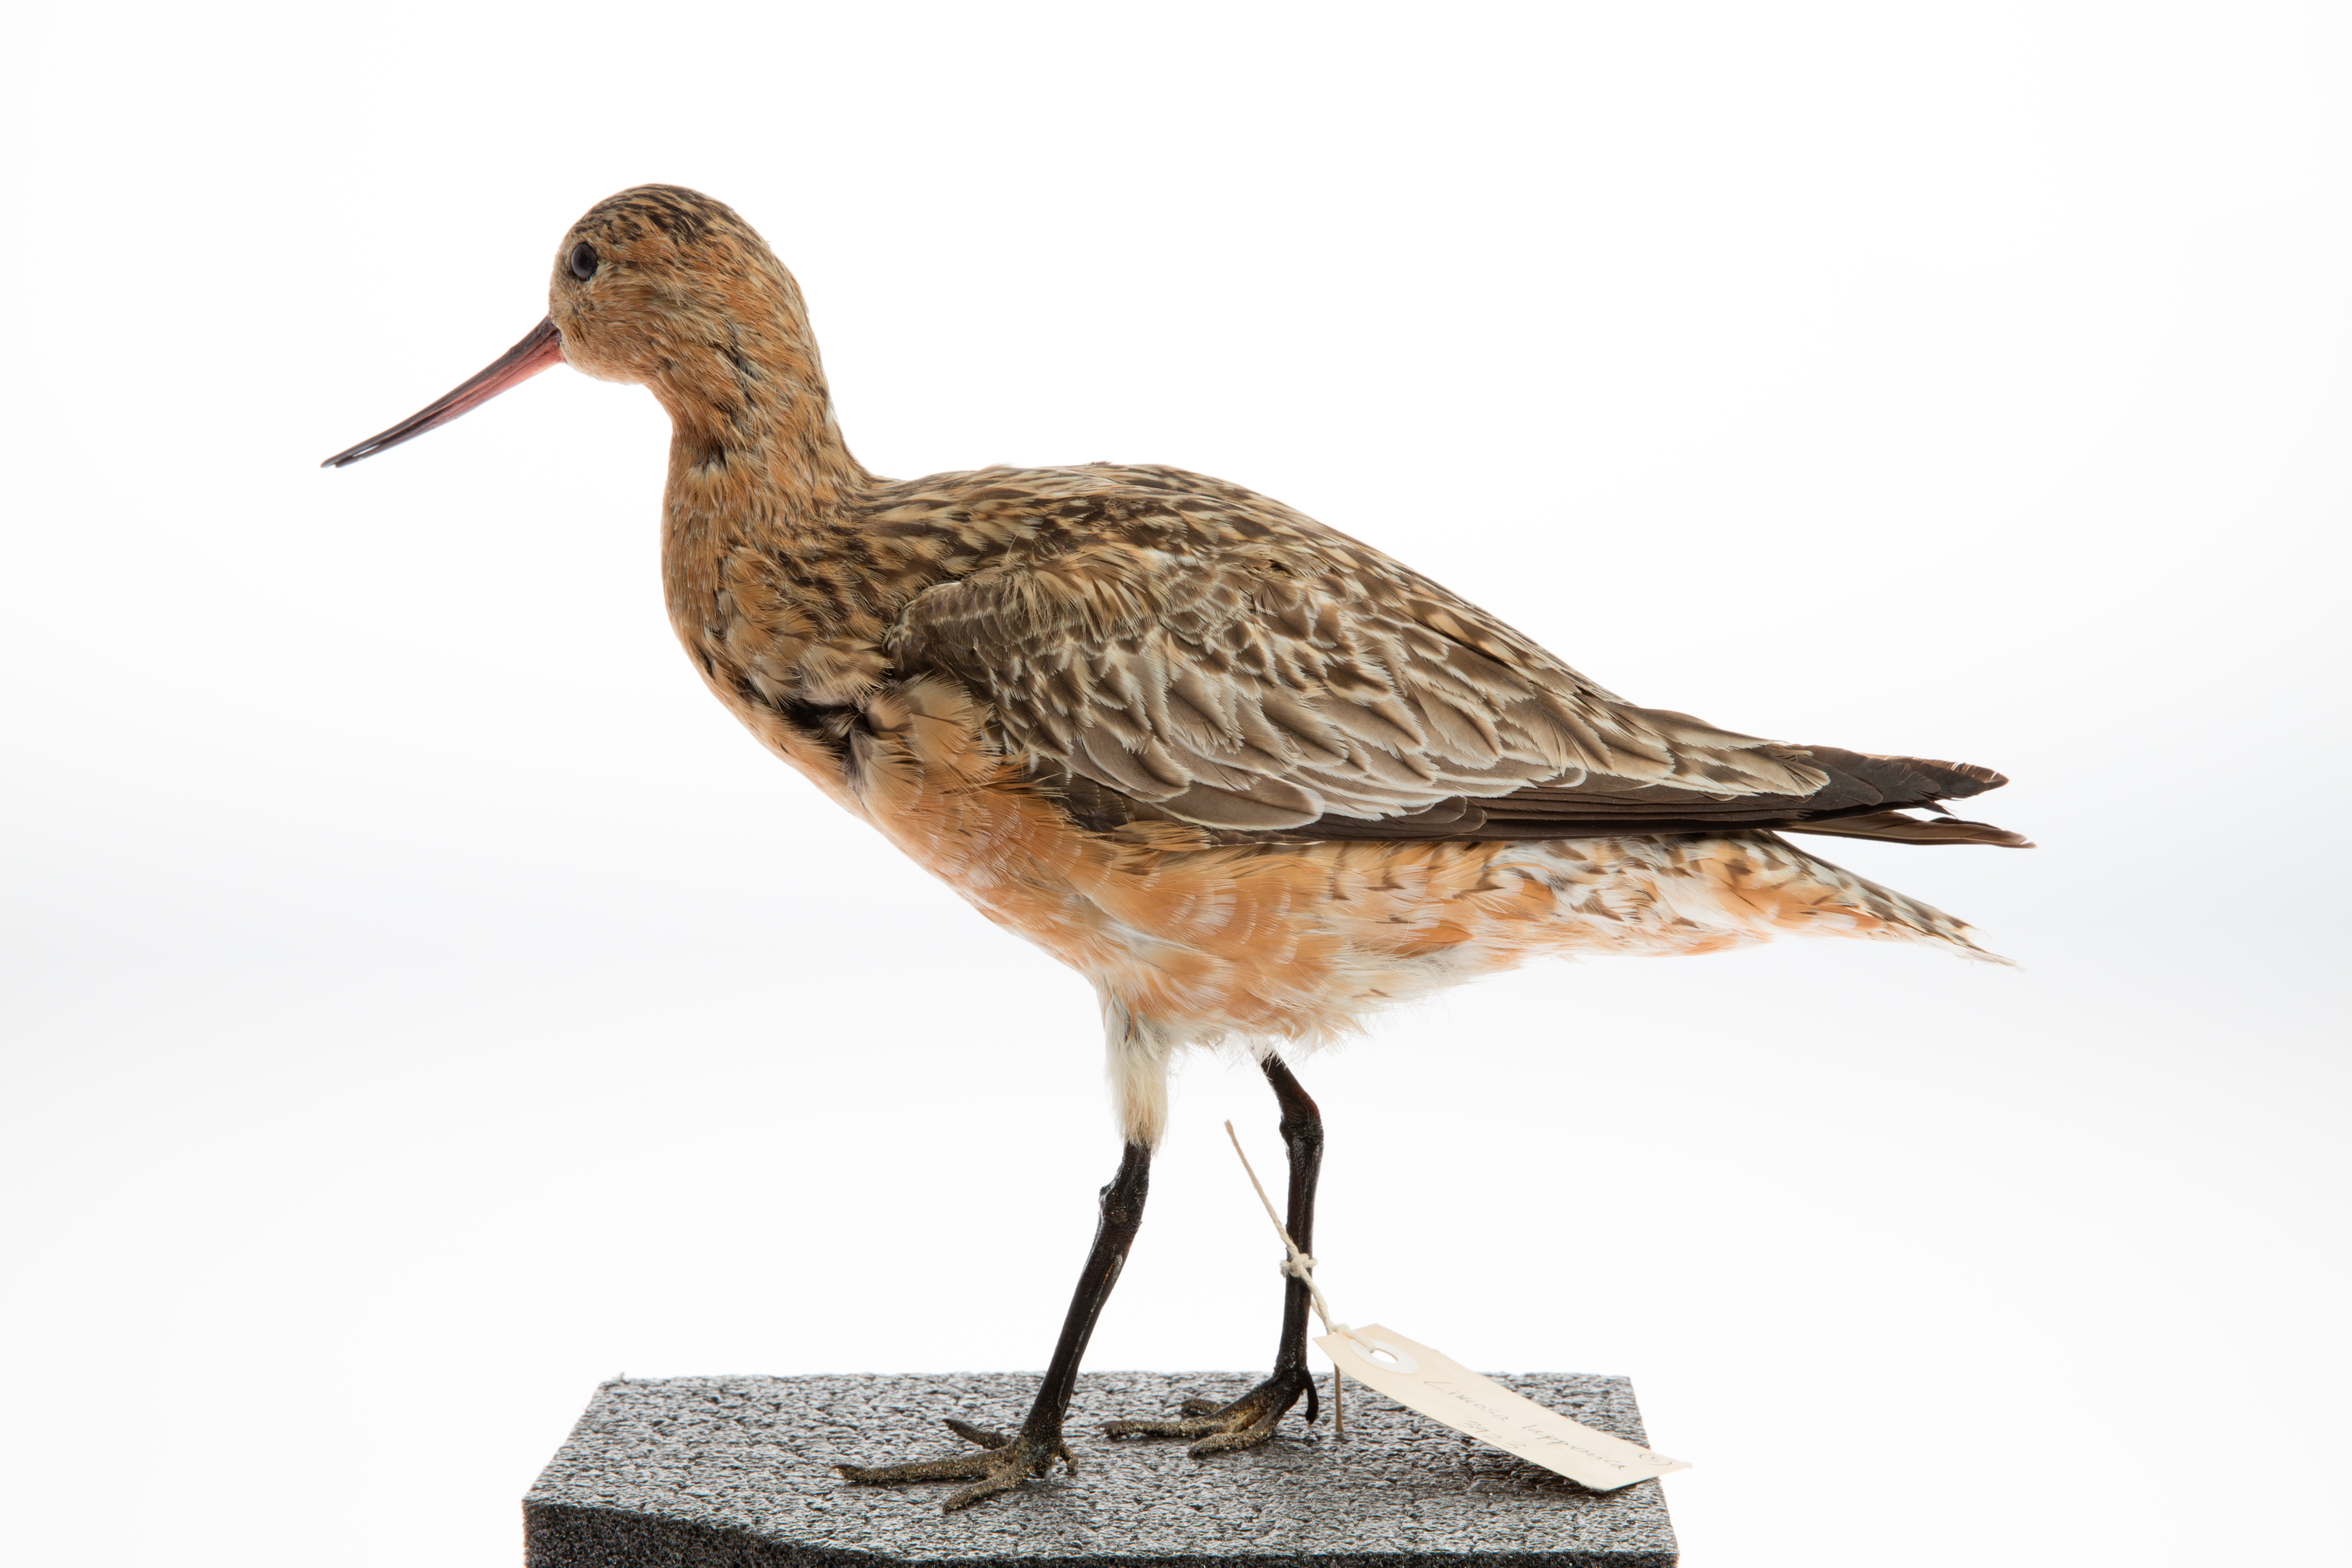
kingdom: Animalia
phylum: Chordata
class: Aves
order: Charadriiformes
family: Scolopacidae
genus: Limosa
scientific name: Limosa lapponica
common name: Bar-tailed godwit
